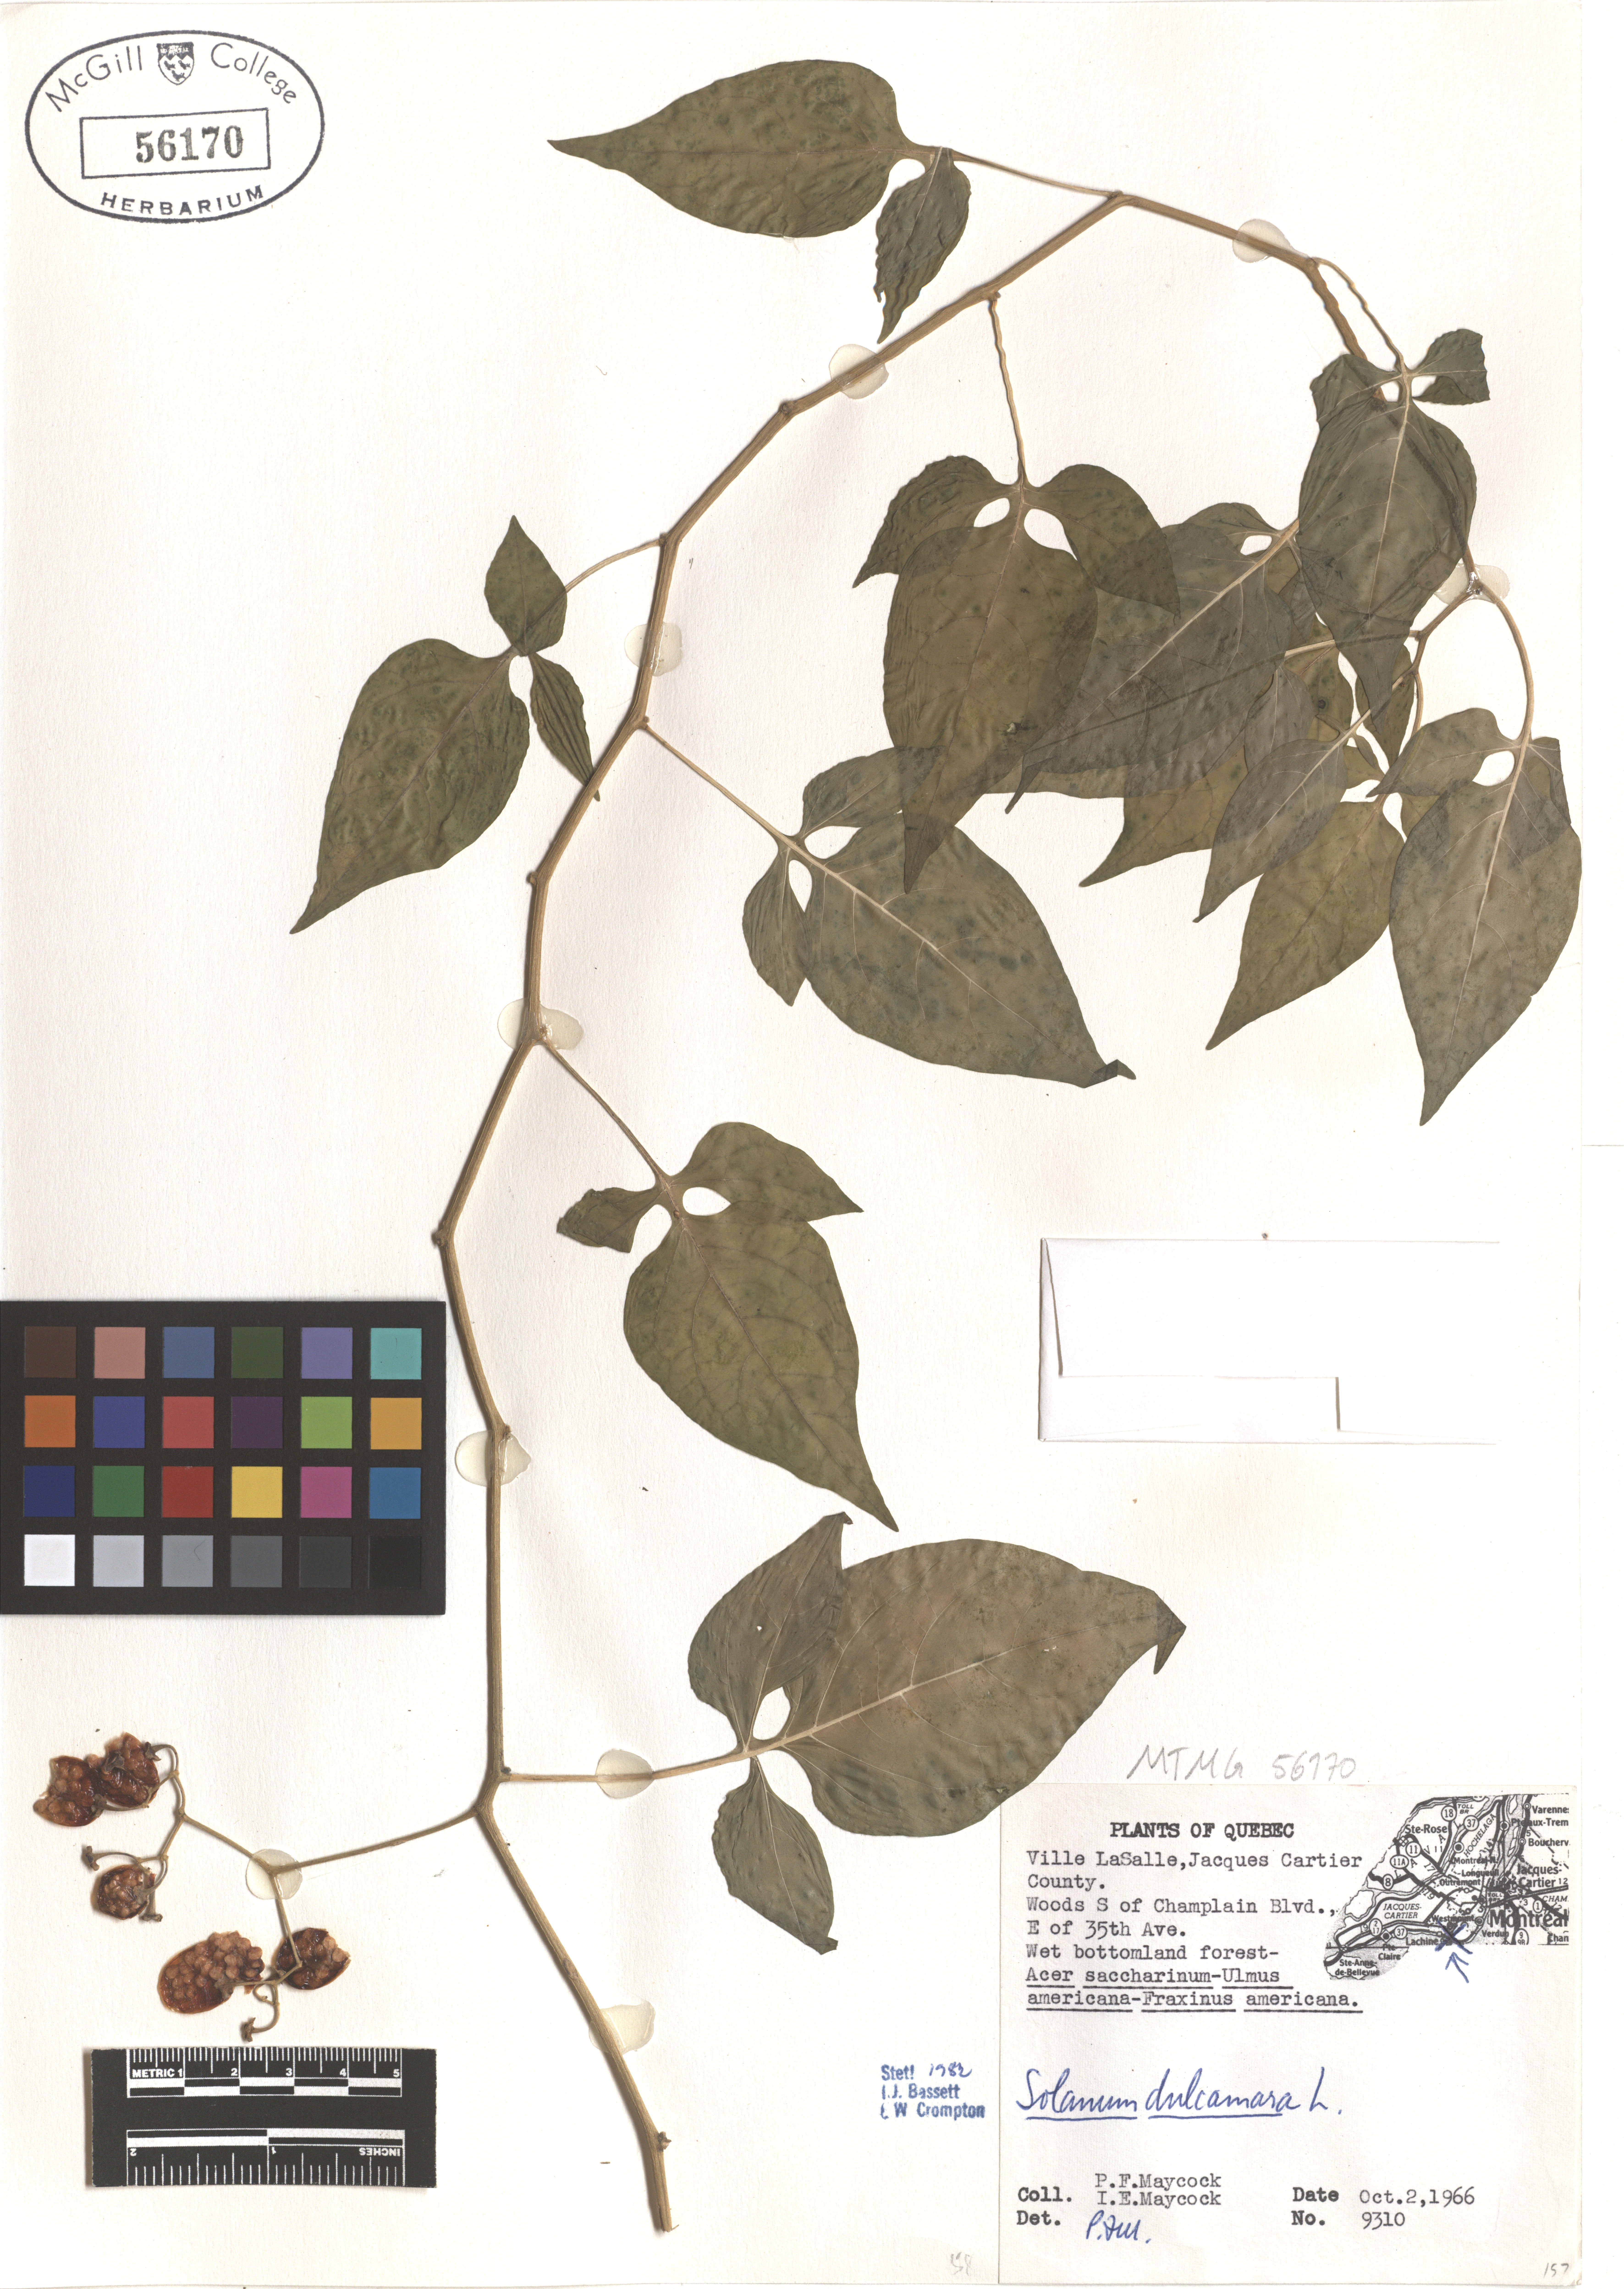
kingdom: Plantae
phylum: Tracheophyta
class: Magnoliopsida
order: Solanales
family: Solanaceae
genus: Solanum
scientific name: Solanum dulcamara
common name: Climbing nightshade
